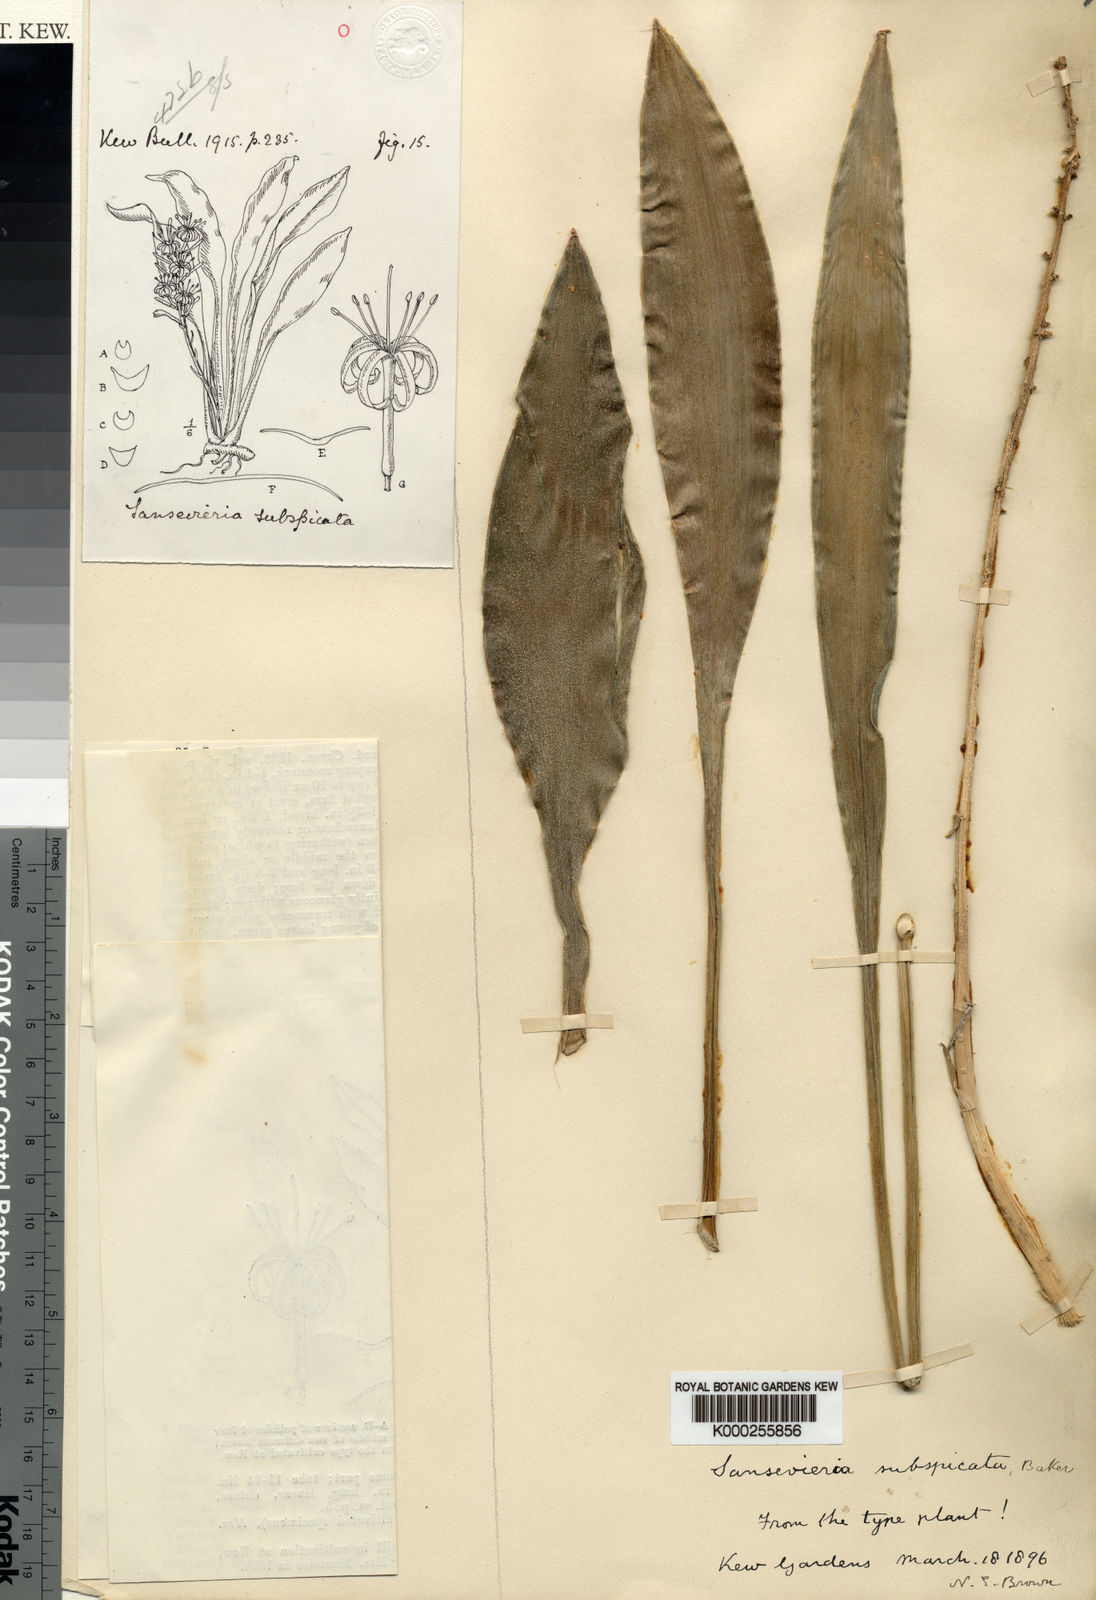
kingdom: Plantae
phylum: Tracheophyta
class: Liliopsida
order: Asparagales
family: Asparagaceae
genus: Dracaena
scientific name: Dracaena subspicata
